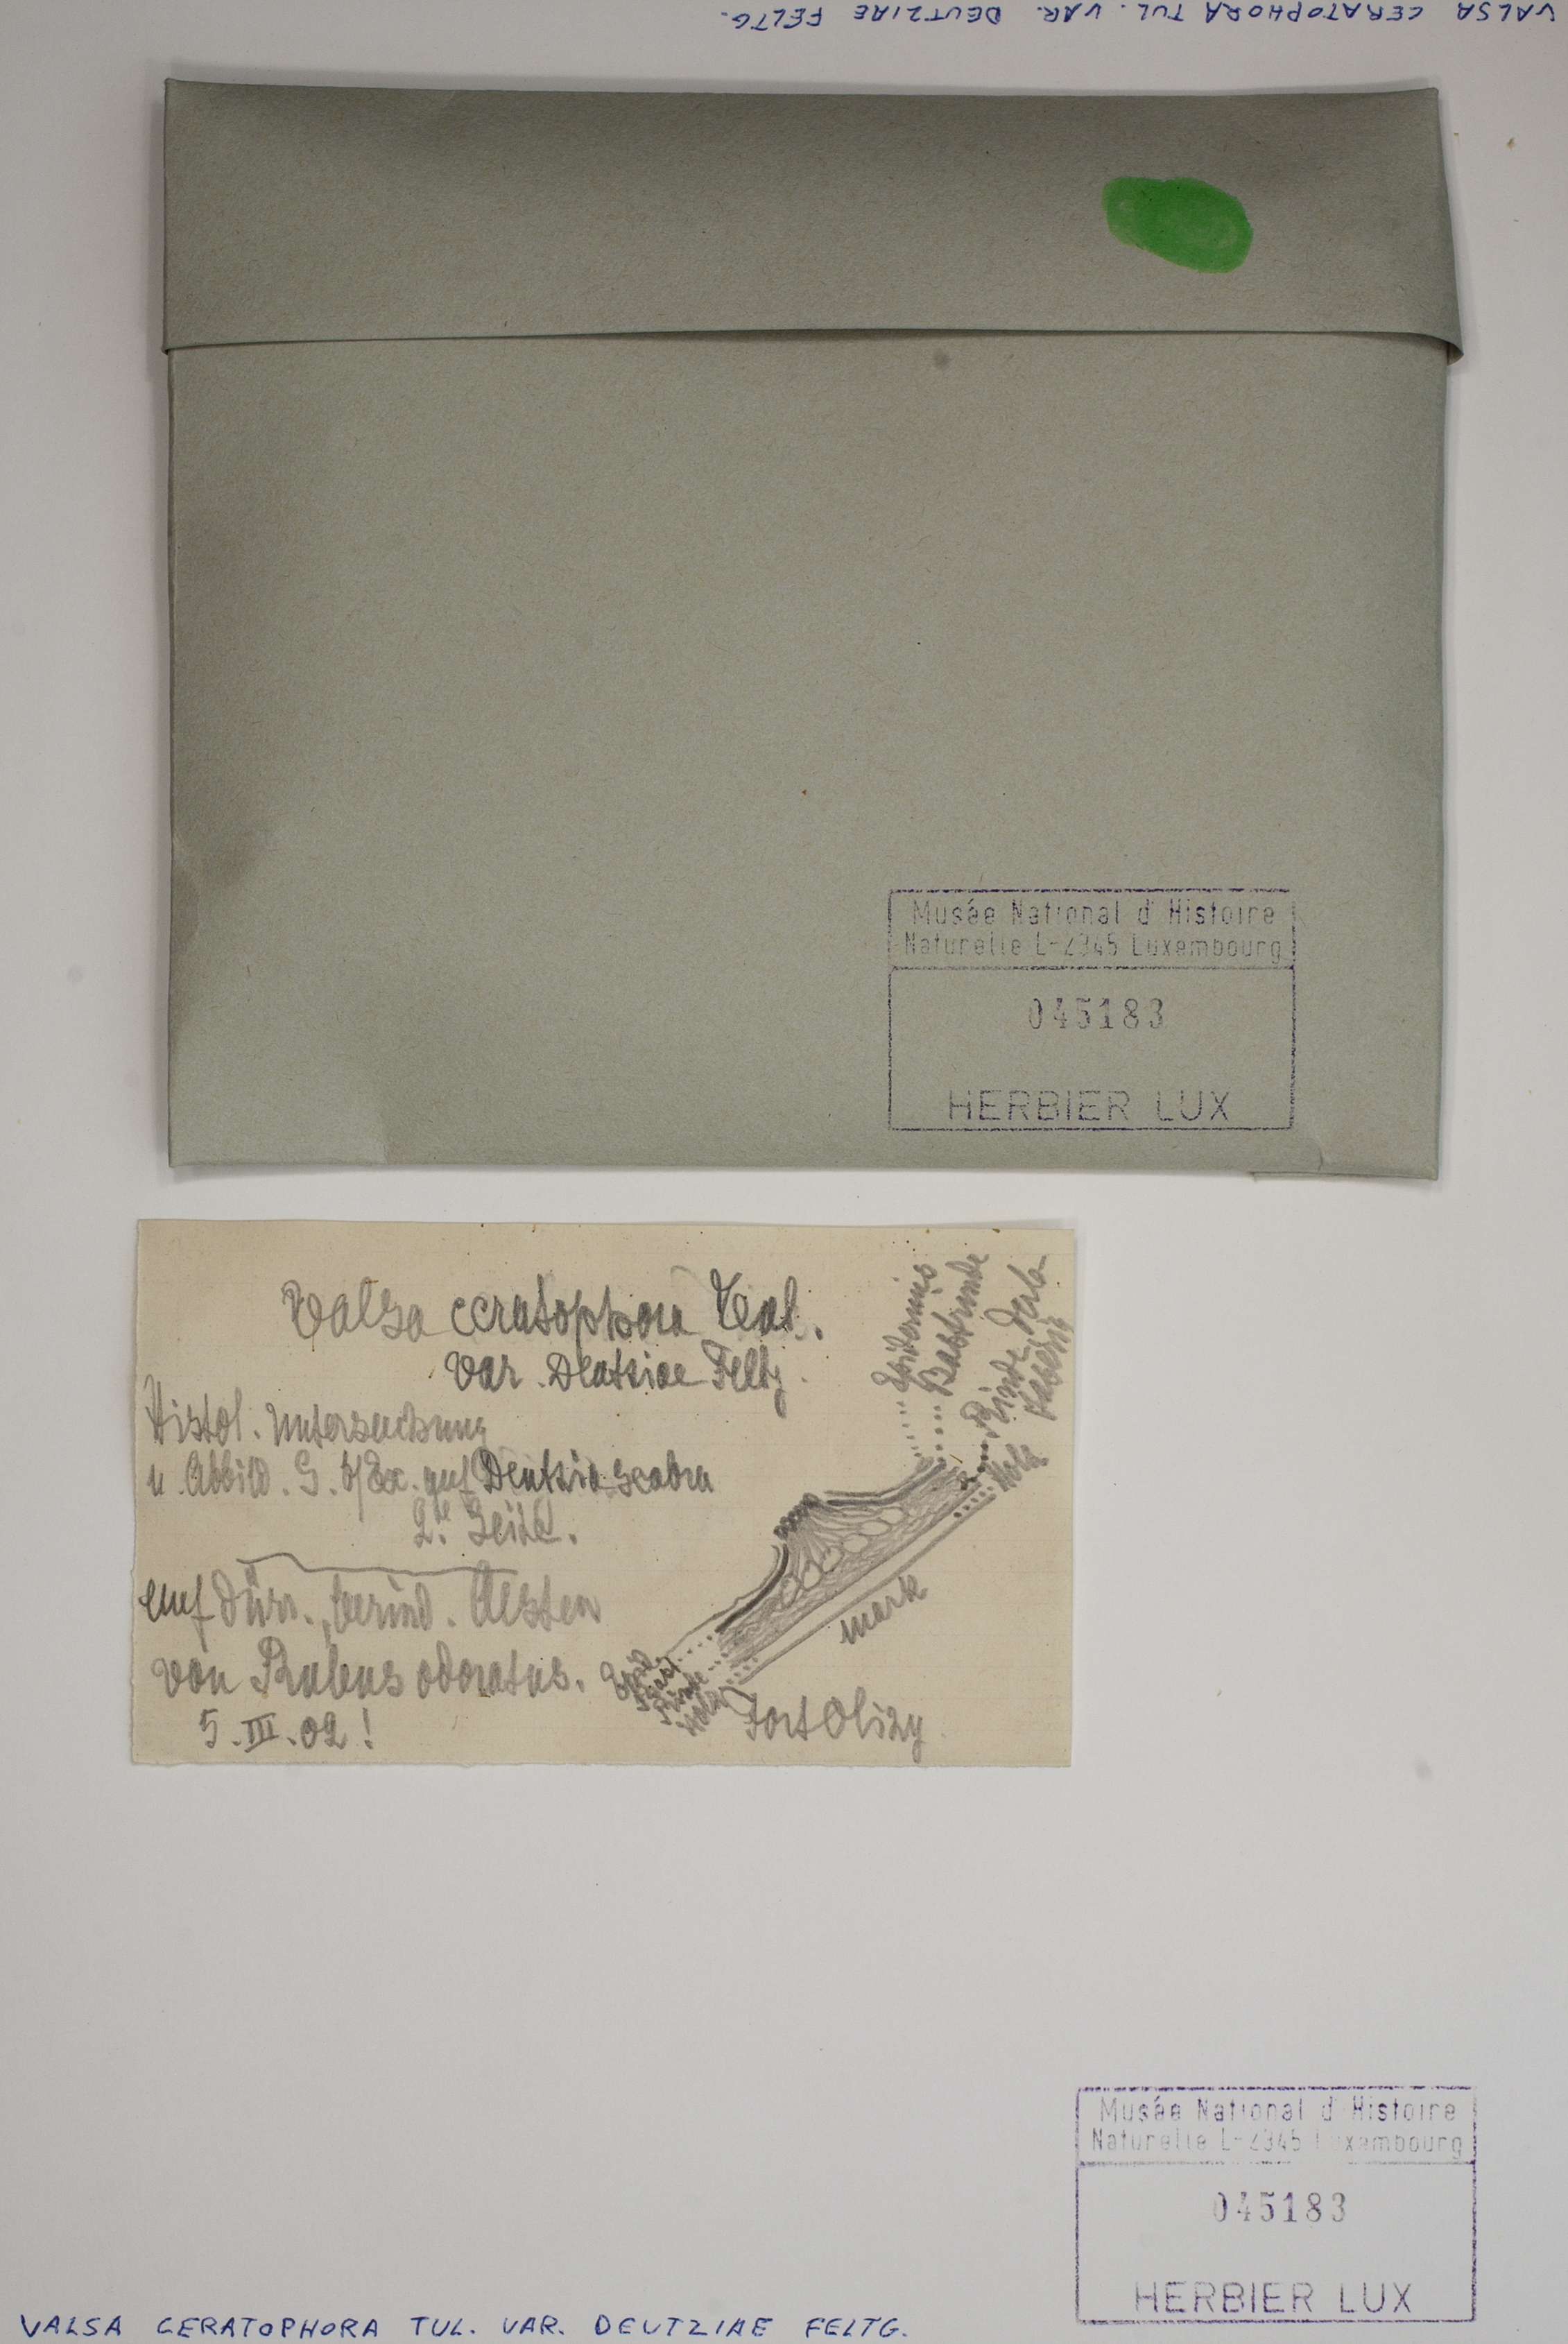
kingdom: Fungi
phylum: Ascomycota
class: Sordariomycetes
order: Diaporthales
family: Valsaceae
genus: Valsa
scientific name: Valsa ceratophora
